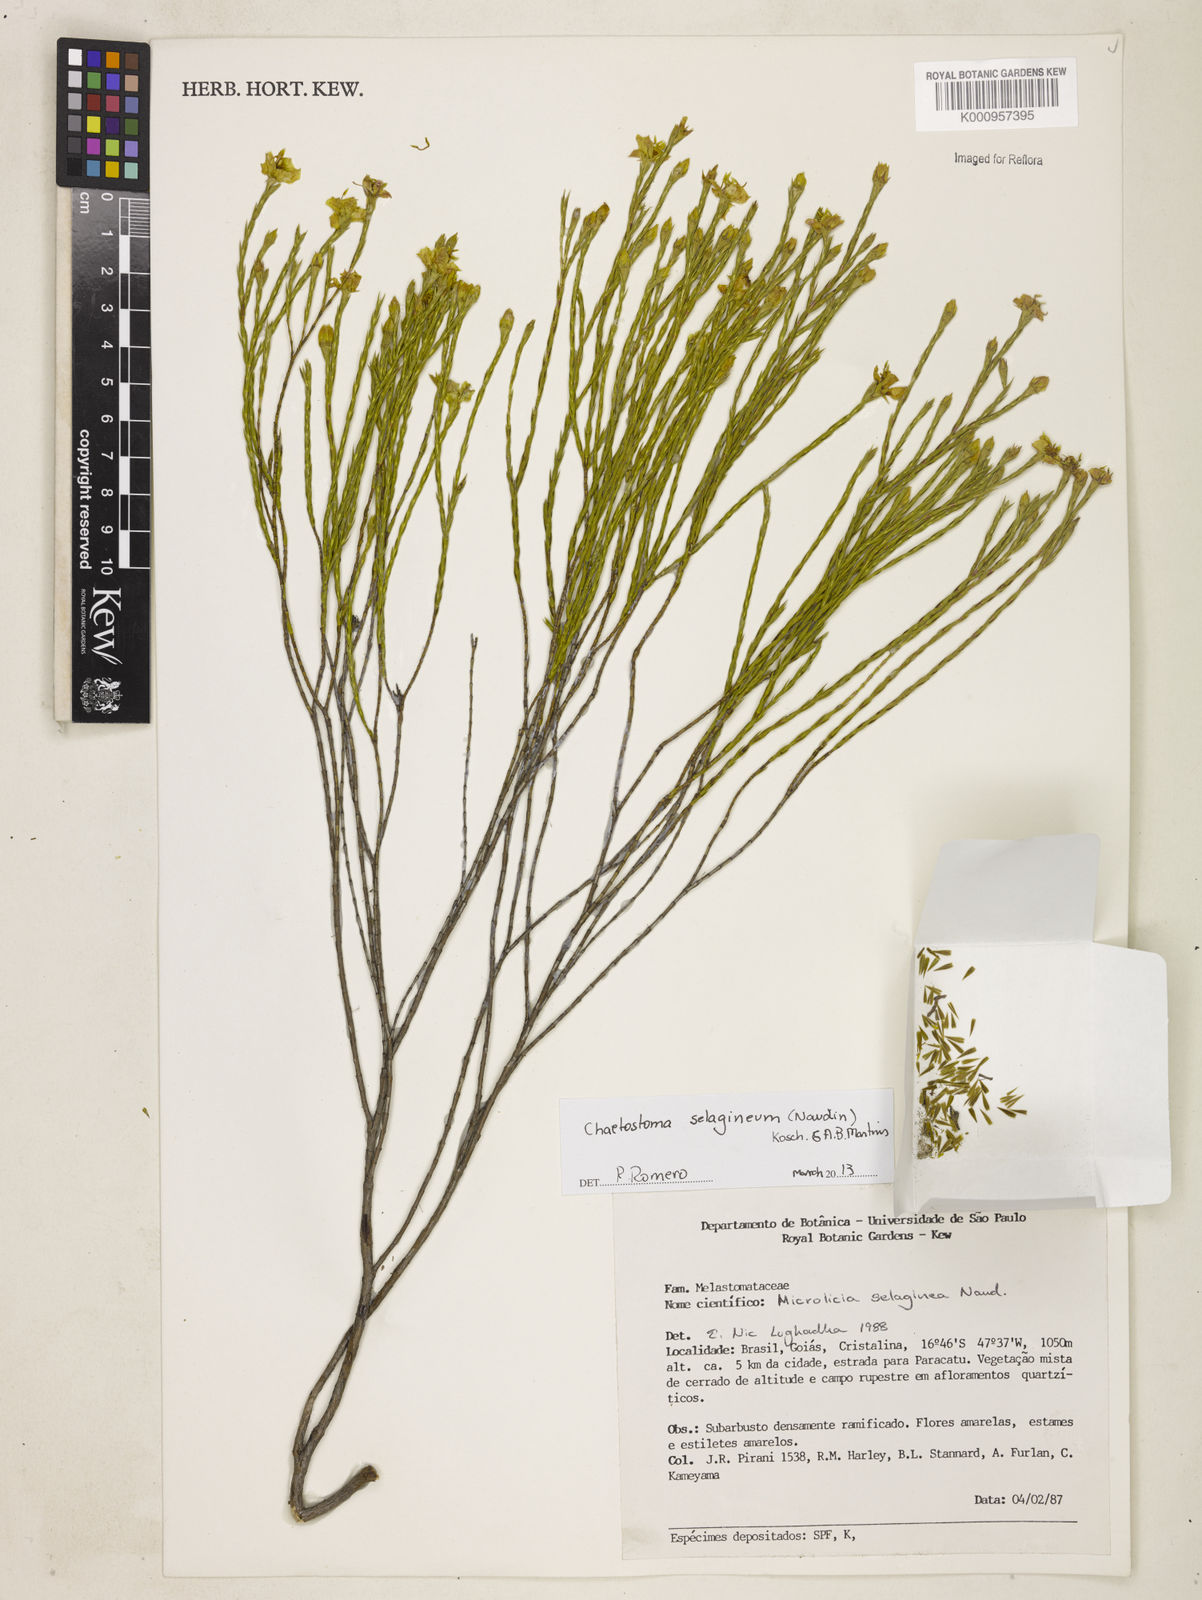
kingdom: Plantae
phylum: Tracheophyta
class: Magnoliopsida
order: Myrtales
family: Melastomataceae
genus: Microlicia
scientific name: Microlicia
